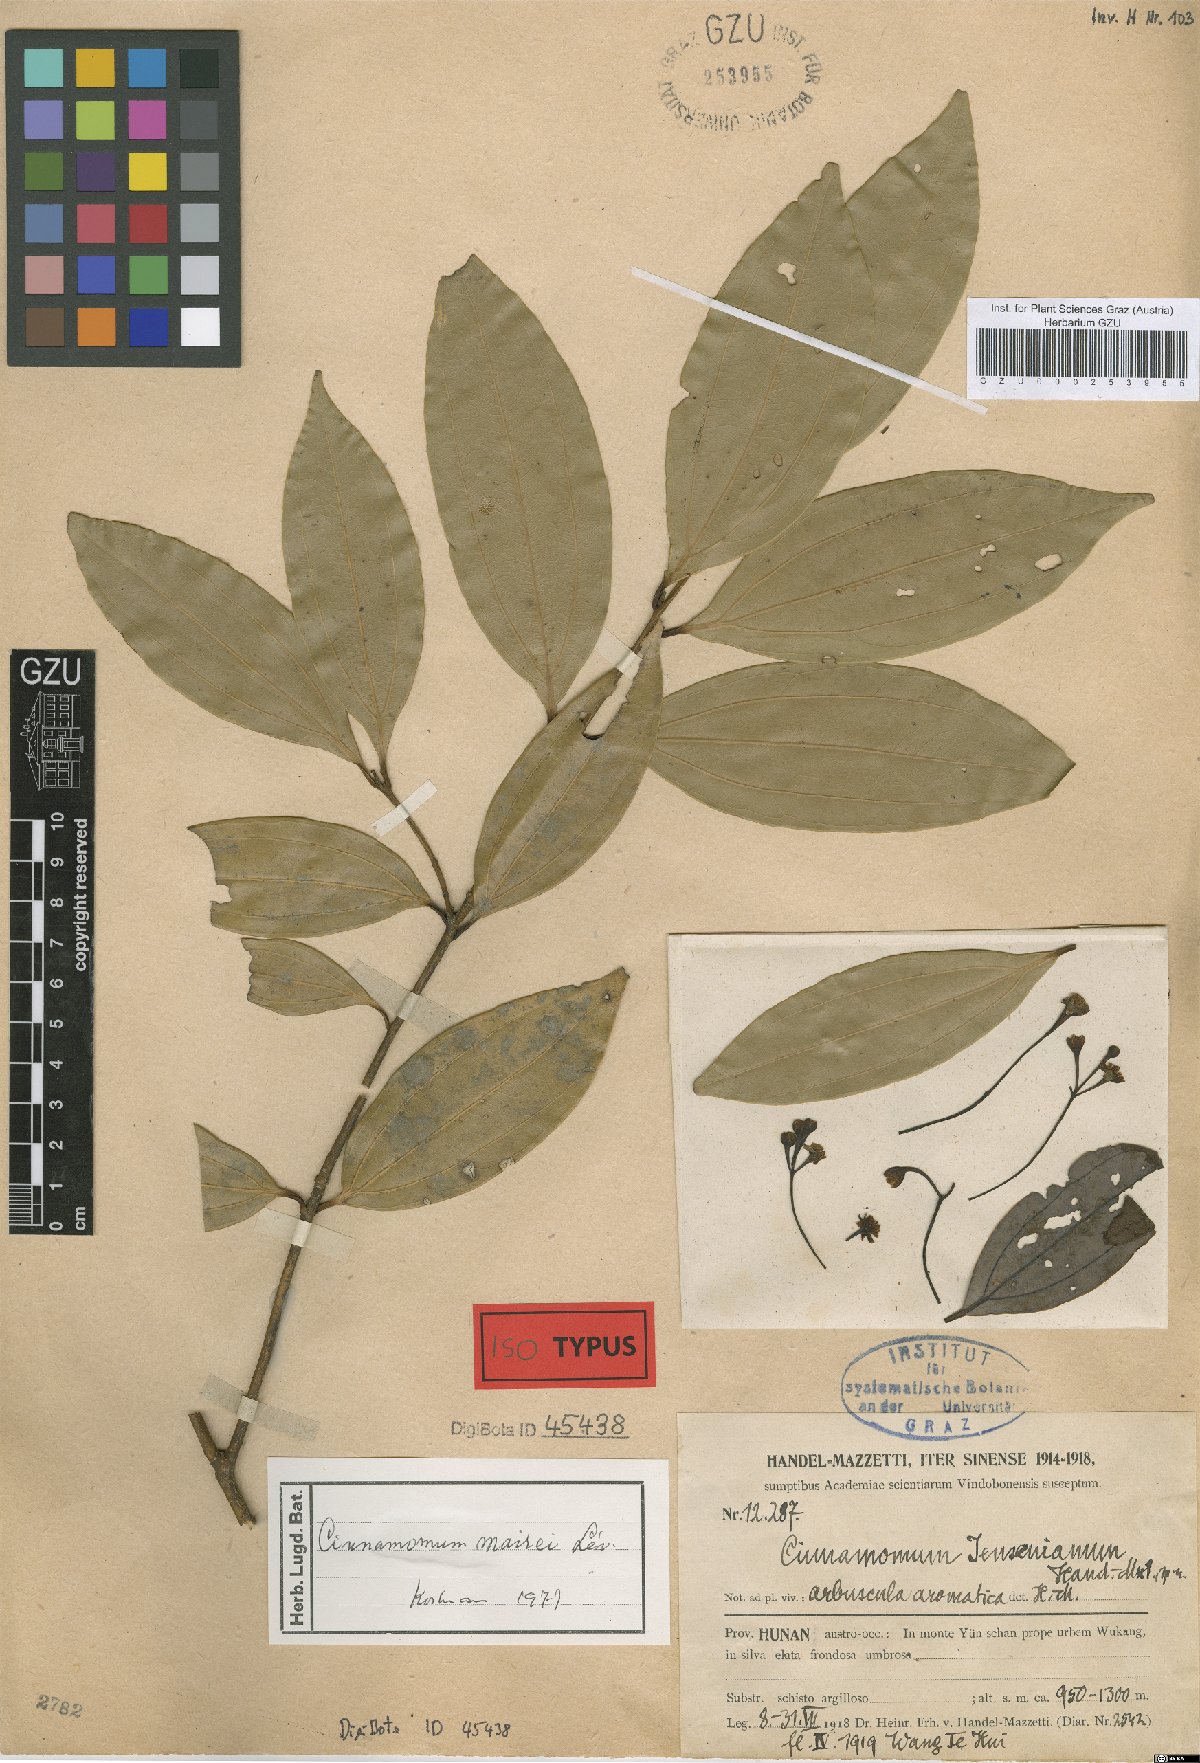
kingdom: Plantae
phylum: Tracheophyta
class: Magnoliopsida
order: Laurales
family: Lauraceae
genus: Cinnamomum
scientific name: Cinnamomum jensenianum
